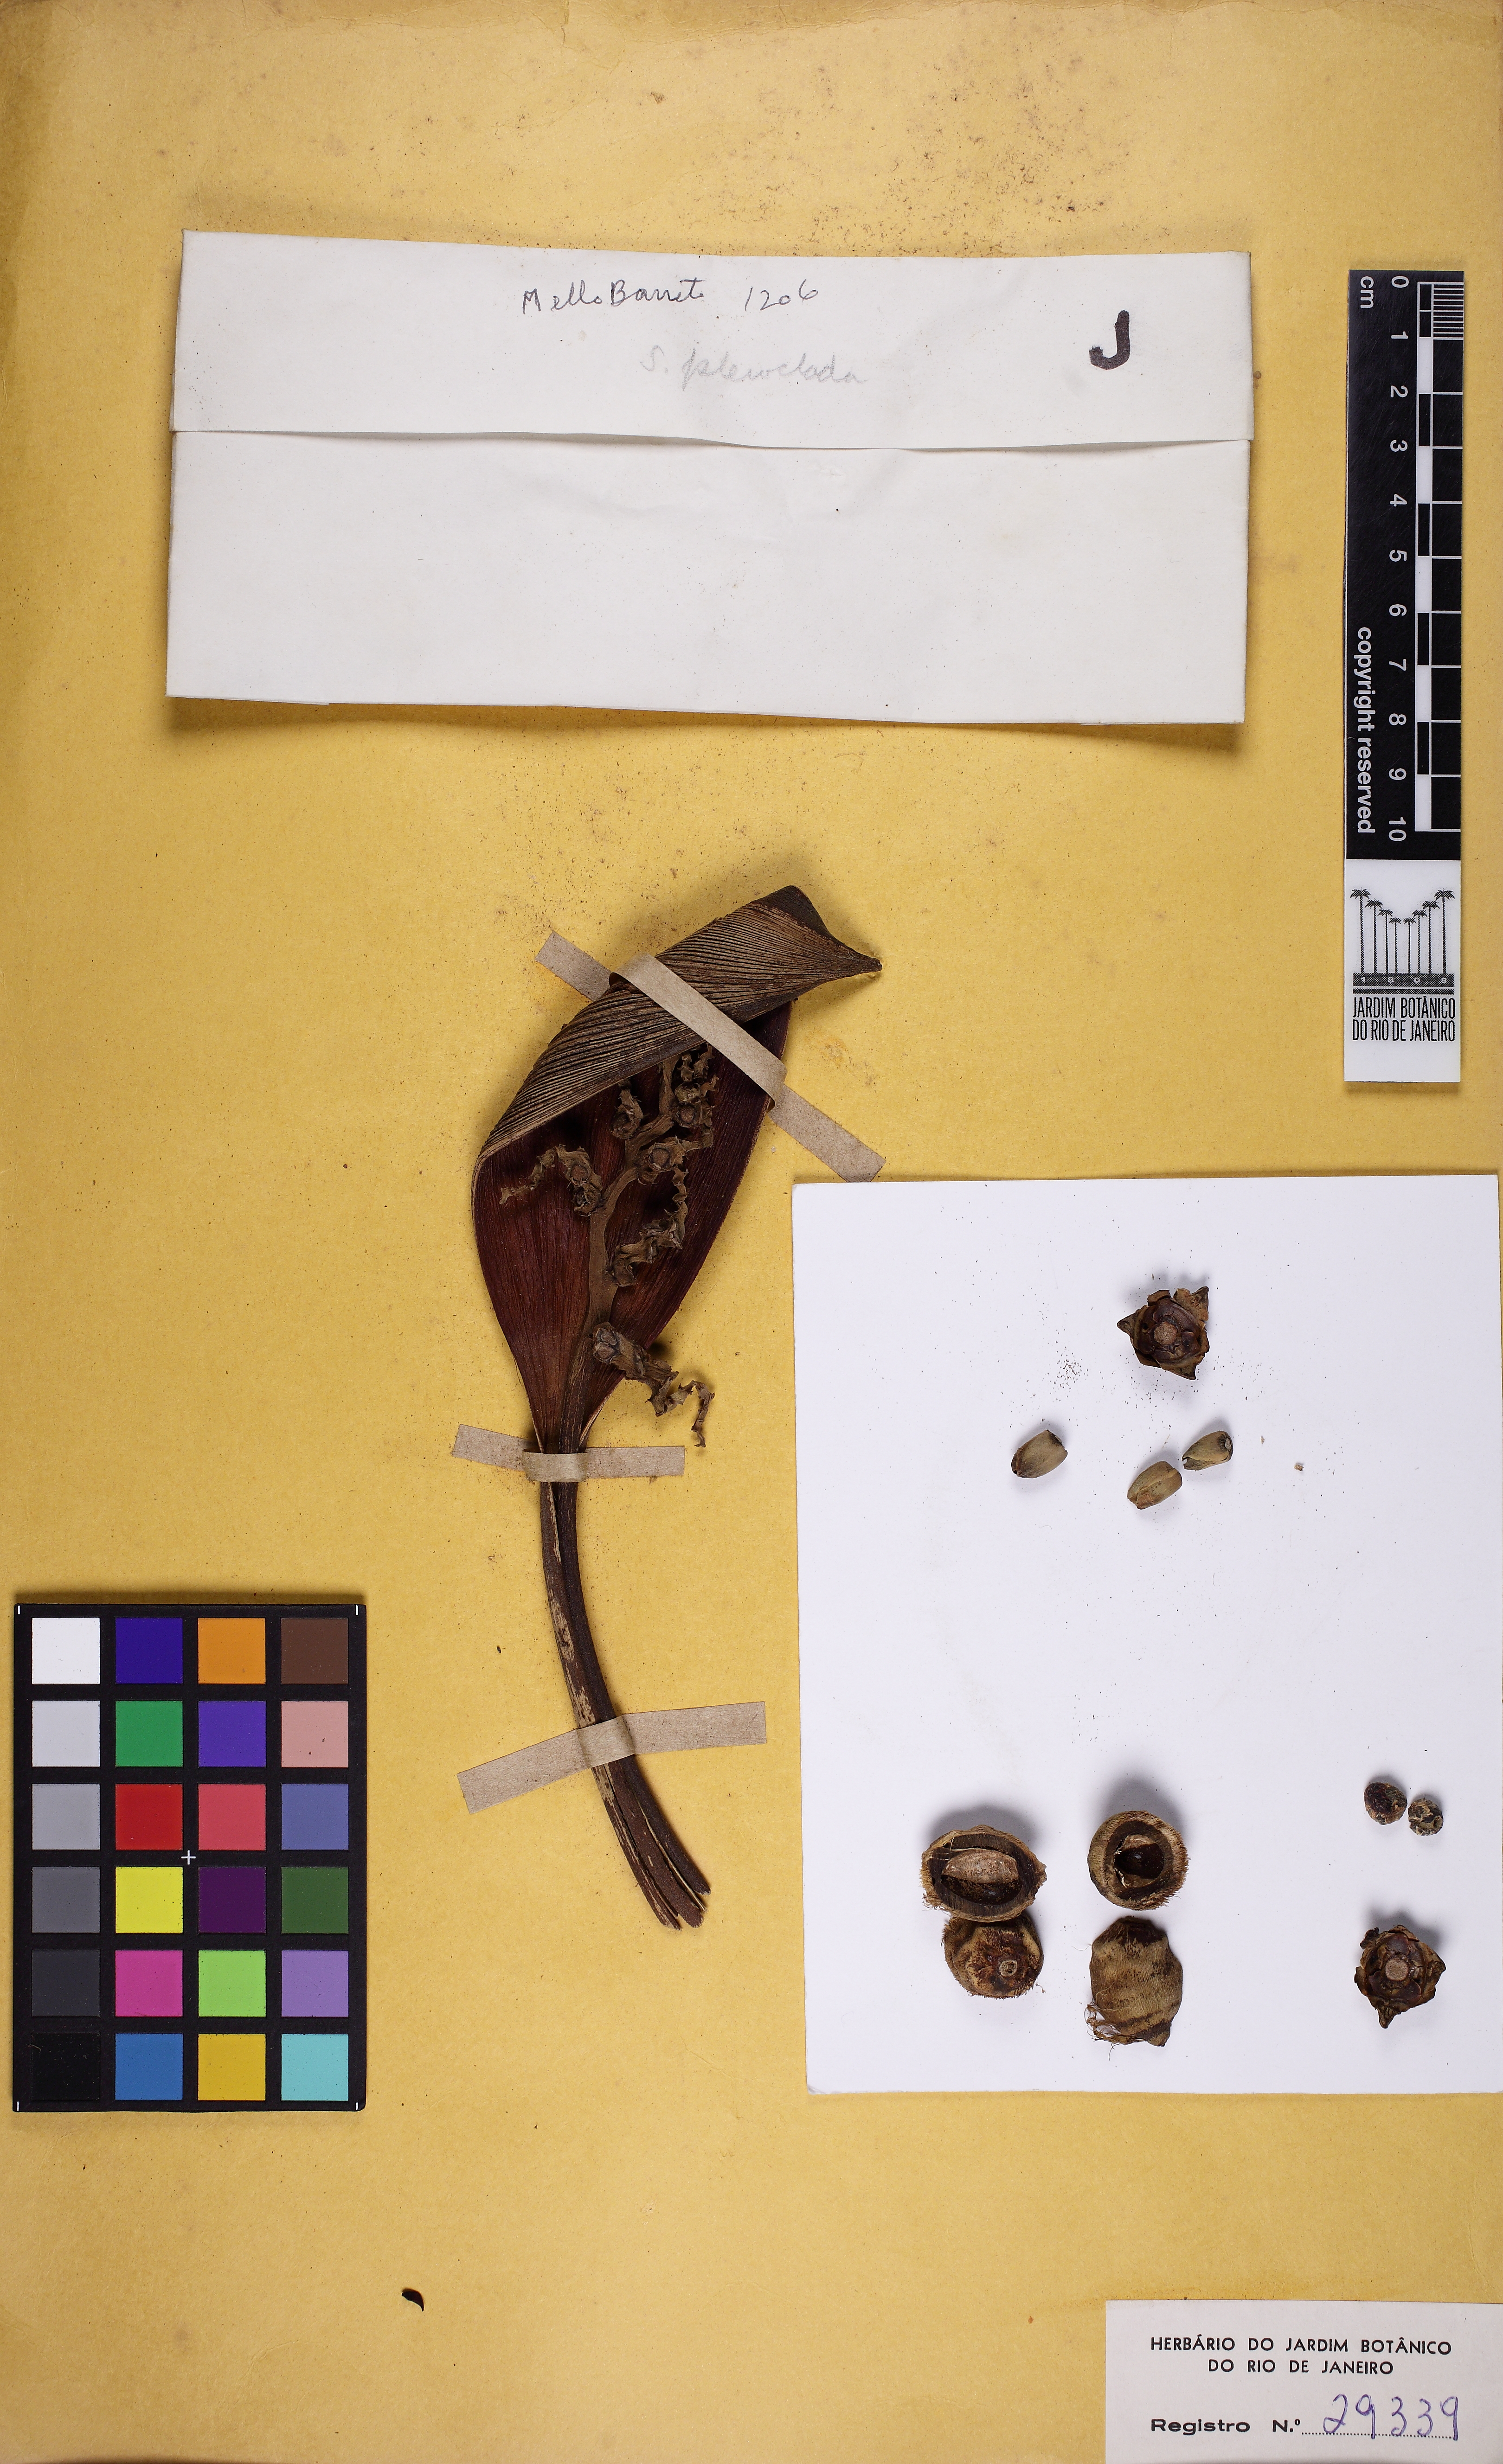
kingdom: Plantae
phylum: Tracheophyta
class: Liliopsida
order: Arecales
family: Arecaceae
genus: Syagrus
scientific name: Syagrus pleioclada
